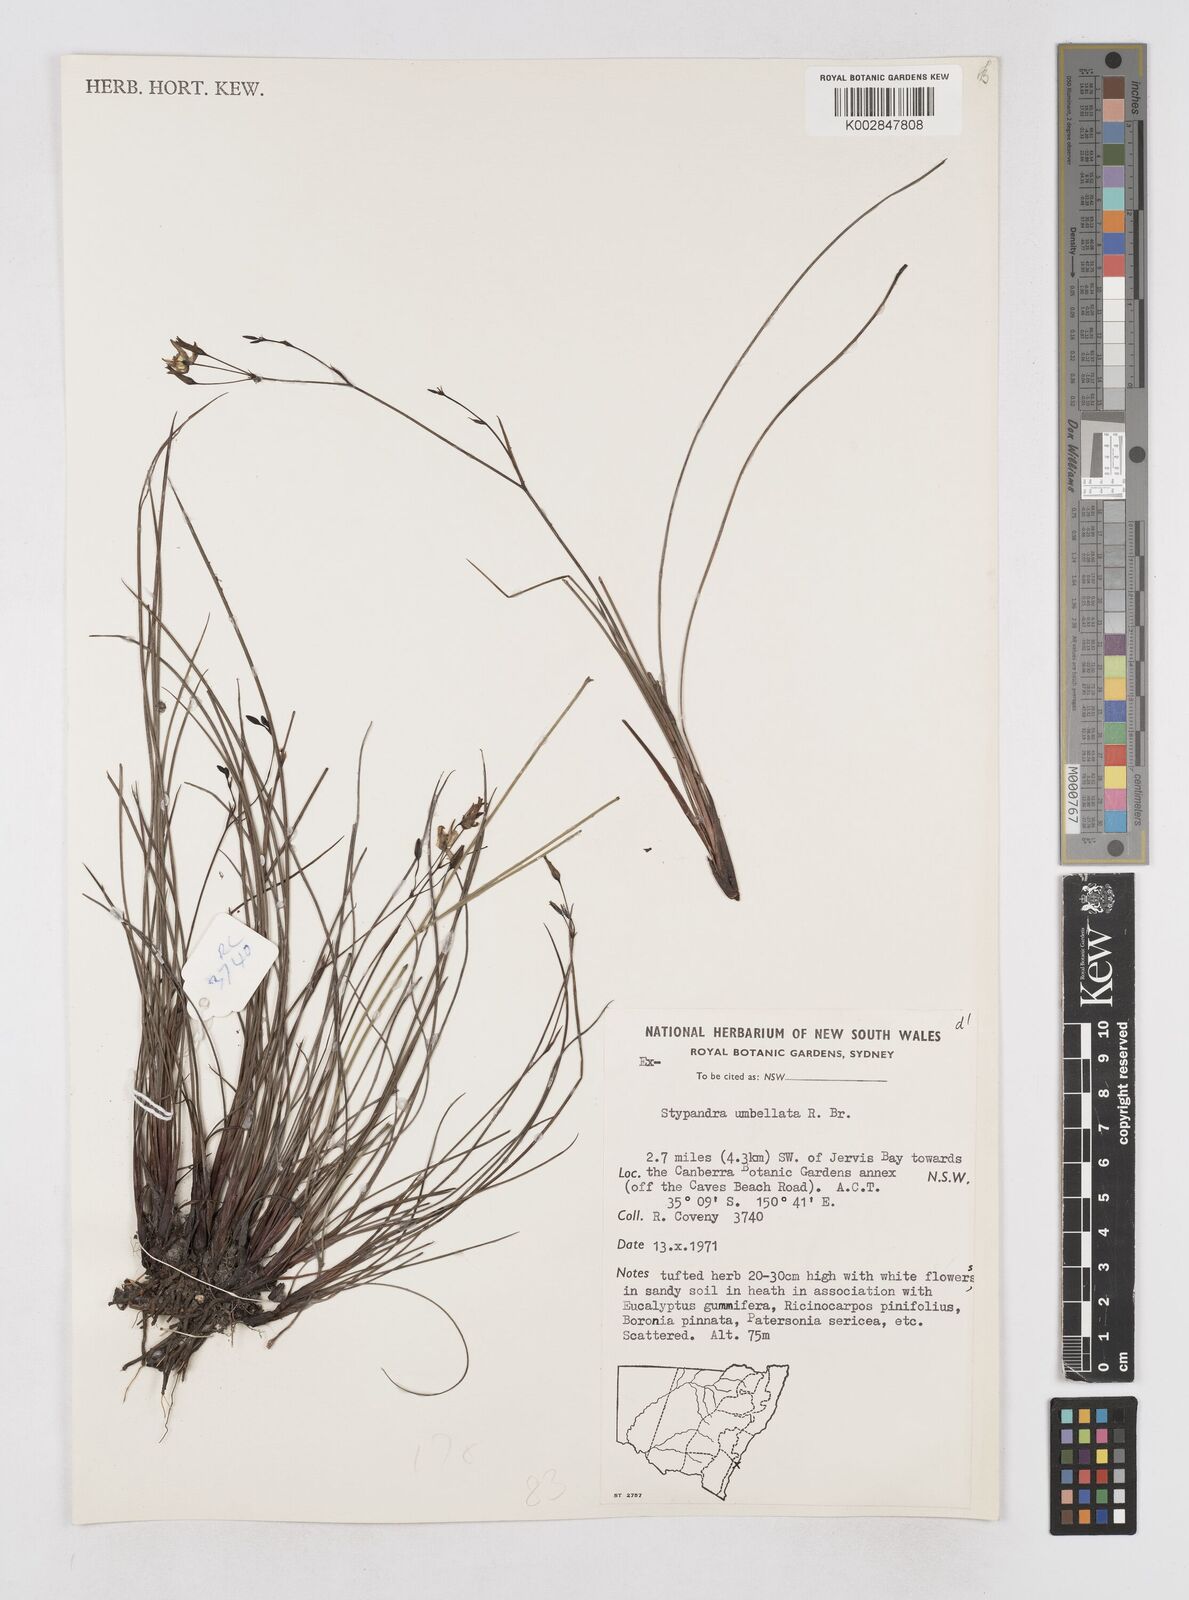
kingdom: Plantae
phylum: Tracheophyta
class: Liliopsida
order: Asparagales
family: Asphodelaceae
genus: Thelionema
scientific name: Thelionema umbellatum
